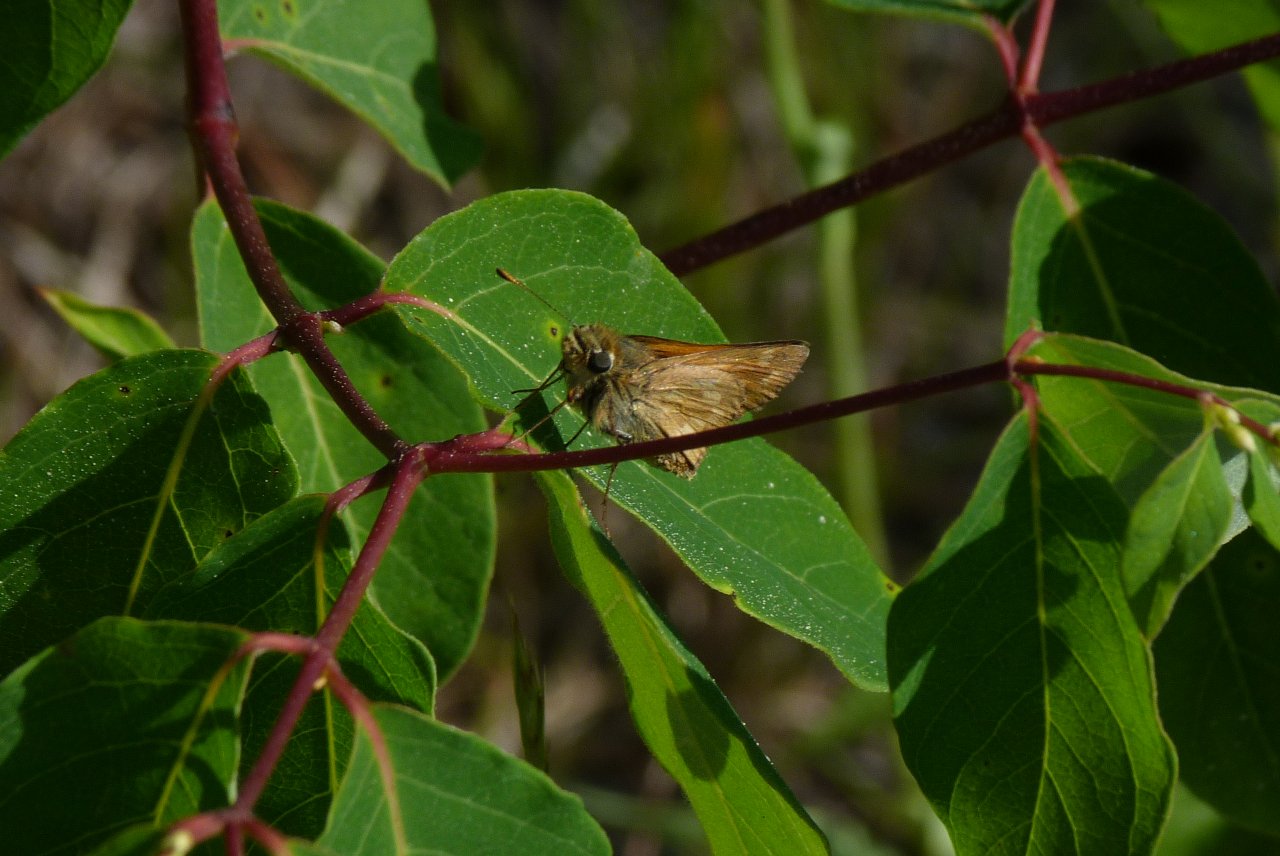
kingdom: Animalia
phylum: Arthropoda
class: Insecta
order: Lepidoptera
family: Hesperiidae
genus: Polites
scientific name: Polites
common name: Long Dash Skipper
